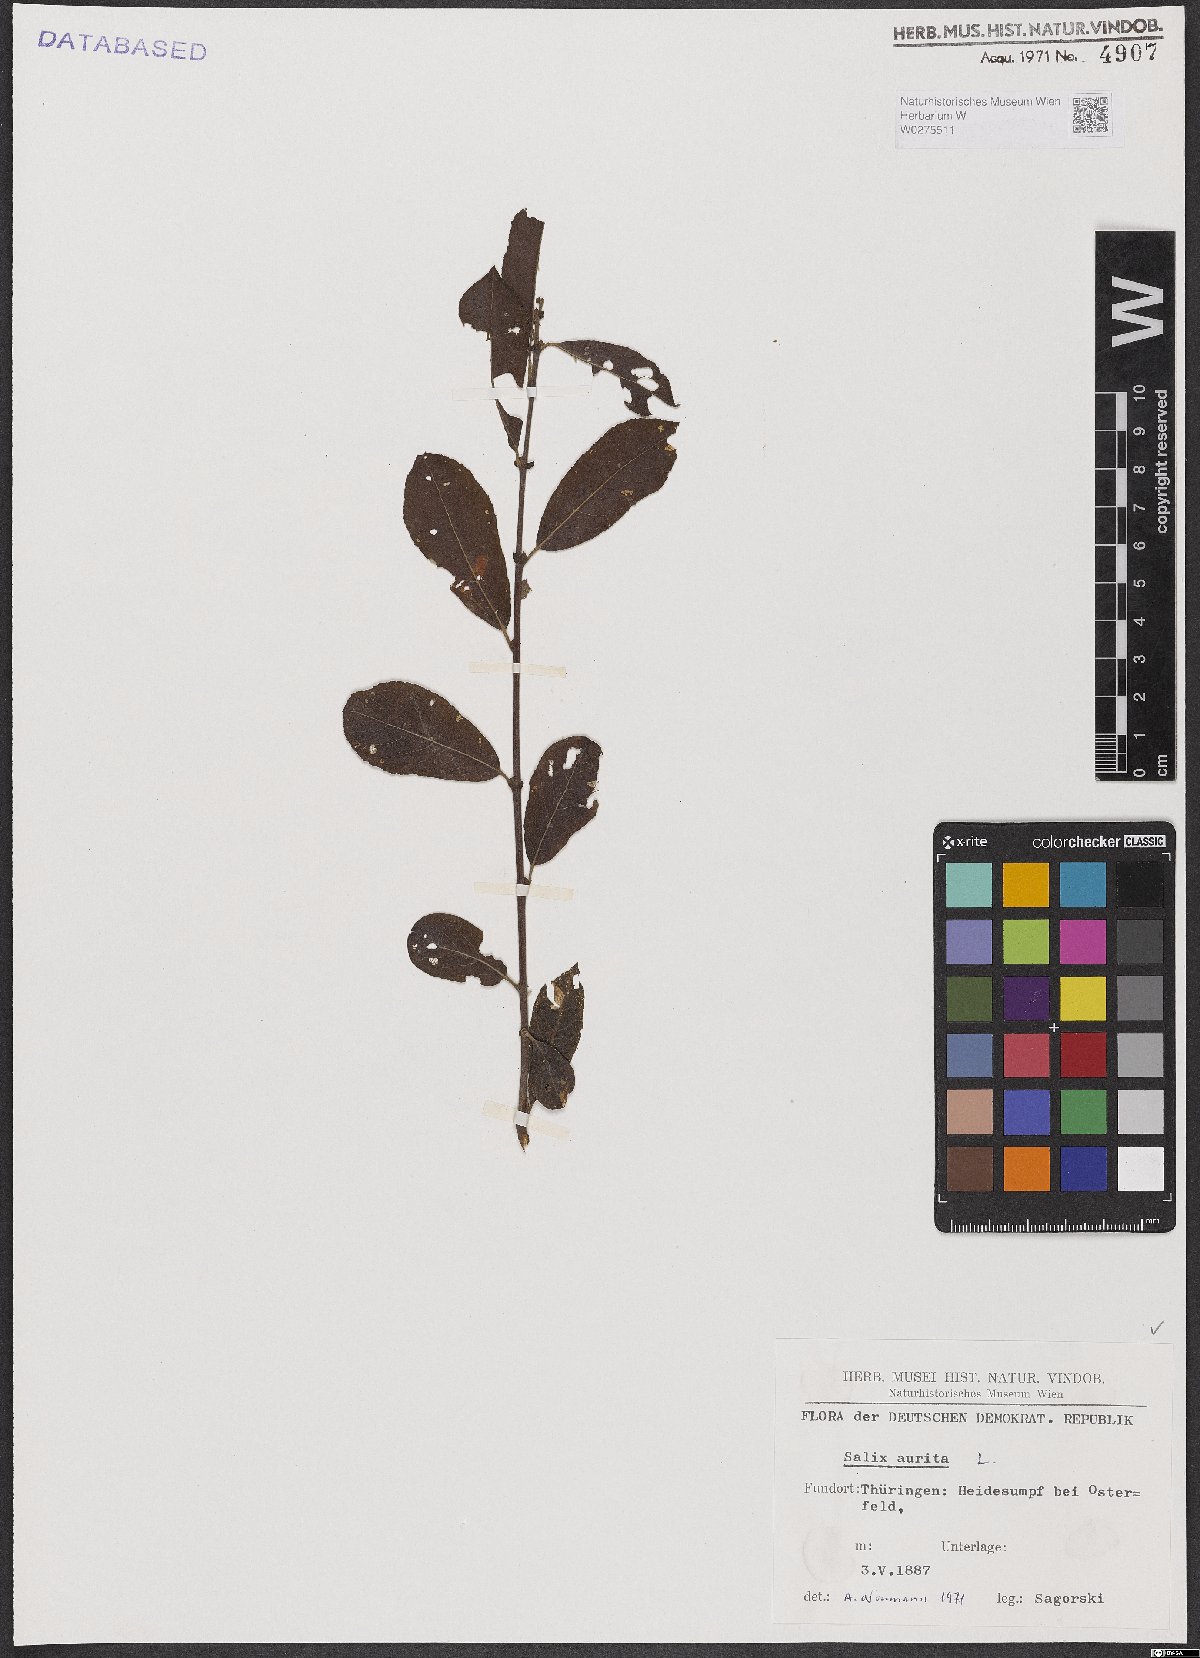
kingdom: Plantae
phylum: Tracheophyta
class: Magnoliopsida
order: Malpighiales
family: Salicaceae
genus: Salix
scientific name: Salix aurita
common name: Eared willow
